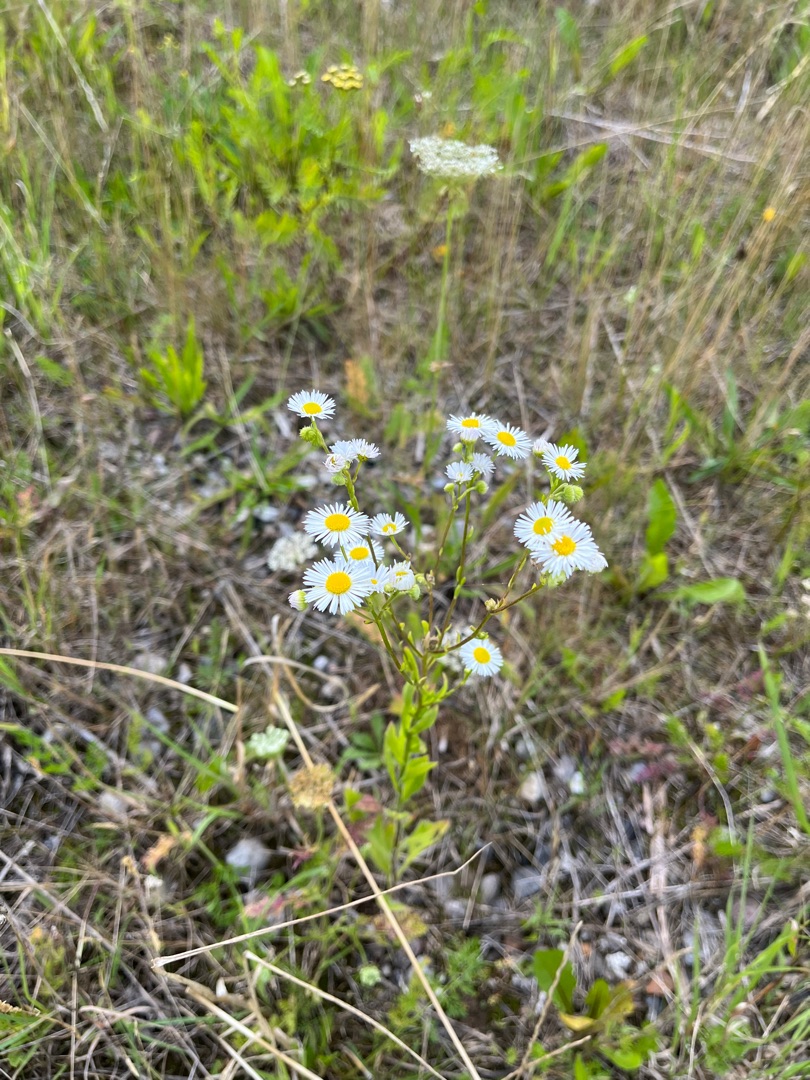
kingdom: Plantae
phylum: Tracheophyta
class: Magnoliopsida
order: Asterales
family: Asteraceae
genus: Erigeron
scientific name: Erigeron annuus
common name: Smalstråle
